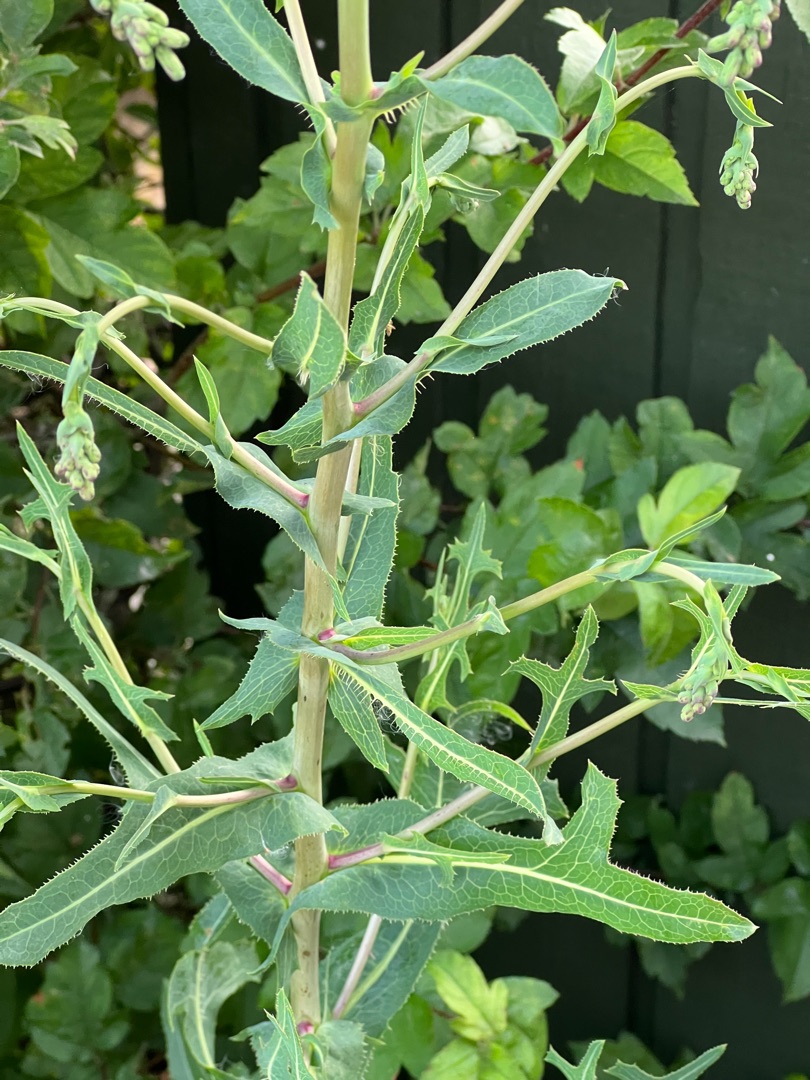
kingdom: Plantae
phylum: Tracheophyta
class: Magnoliopsida
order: Asterales
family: Asteraceae
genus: Lactuca
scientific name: Lactuca serriola
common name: Tornet salat
